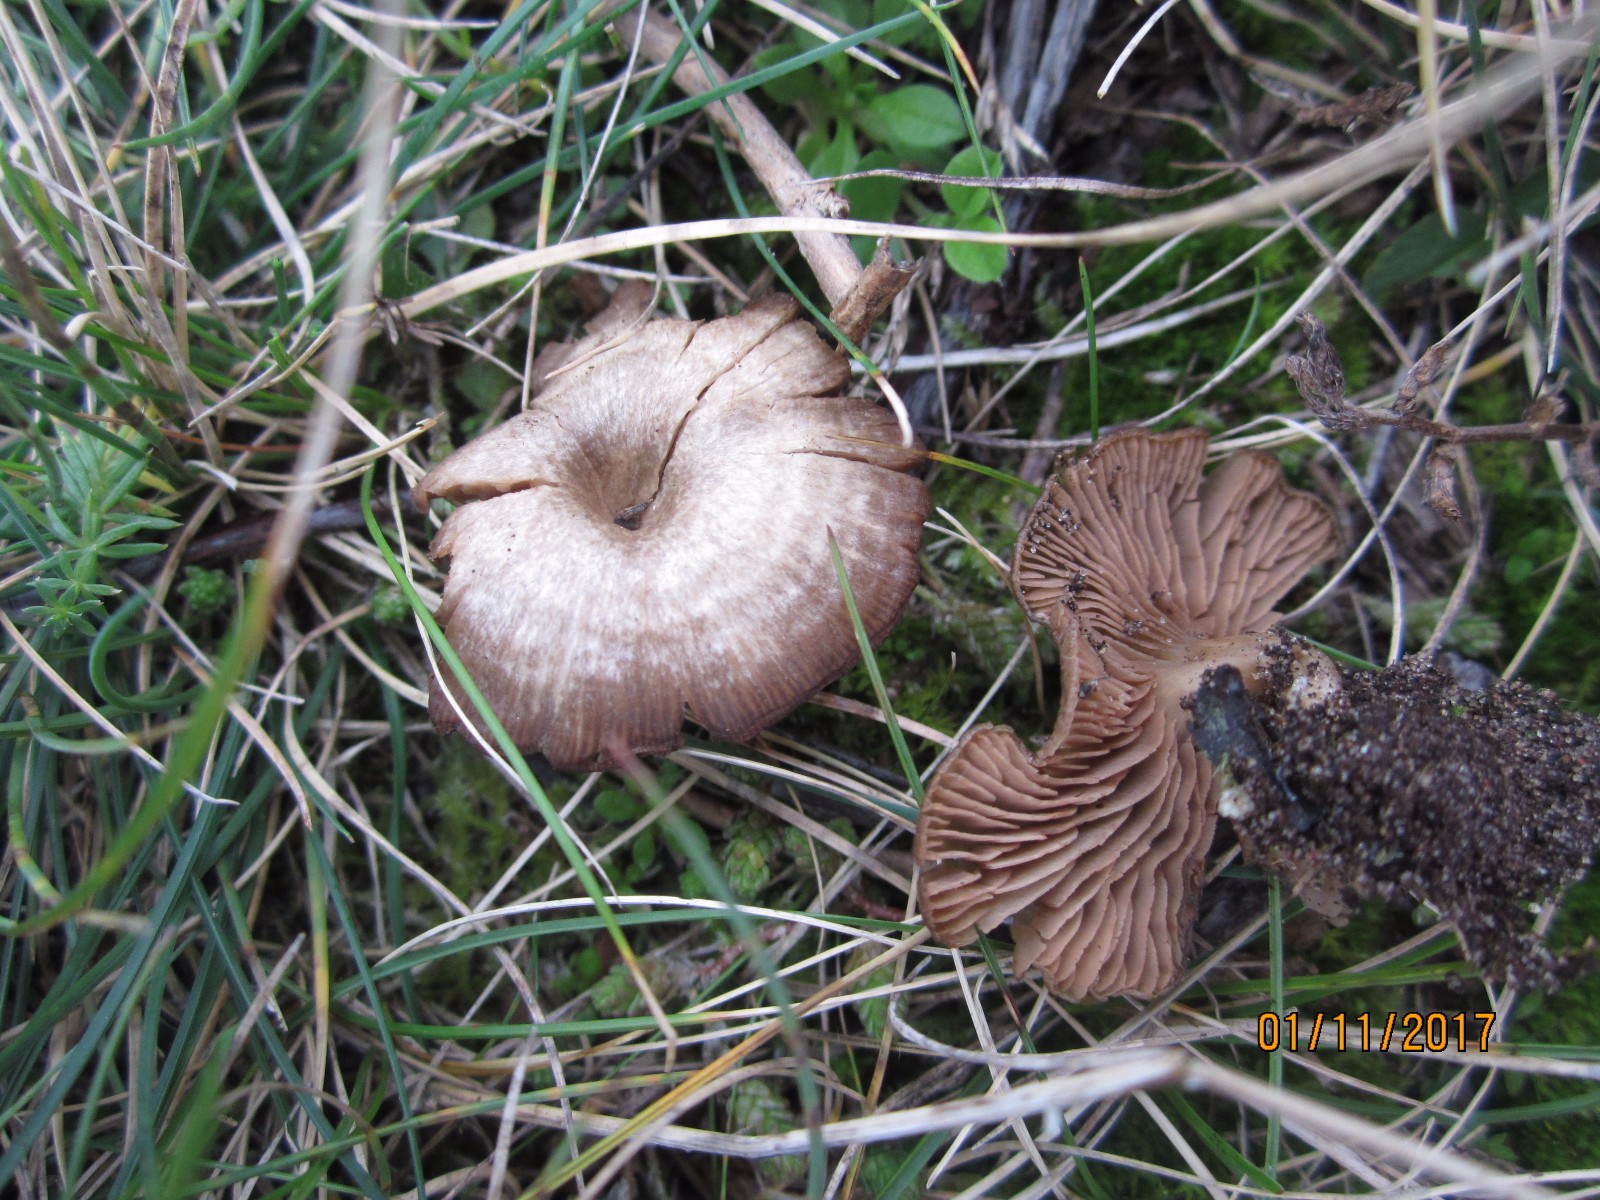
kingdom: Fungi
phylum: Basidiomycota
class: Agaricomycetes
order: Agaricales
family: Entolomataceae
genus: Entoloma
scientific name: Entoloma undatum
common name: bæltet rødblad
